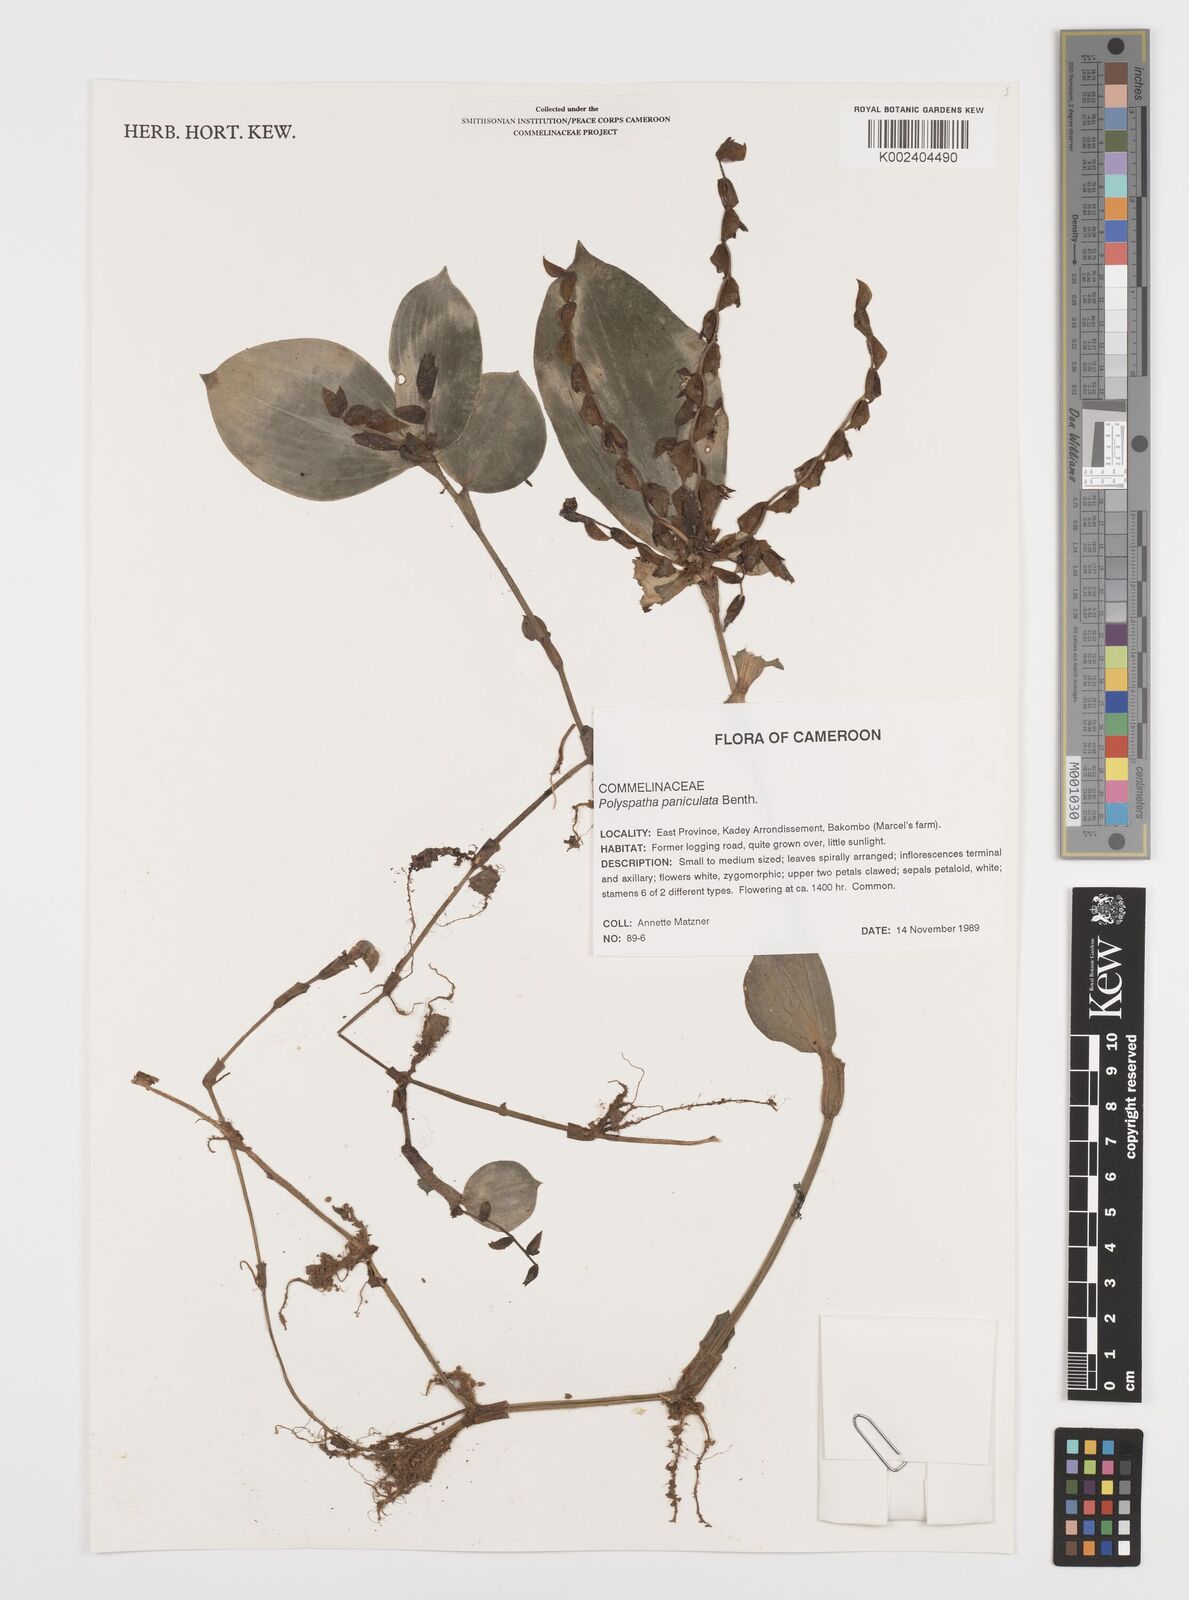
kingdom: Plantae
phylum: Tracheophyta
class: Liliopsida
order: Commelinales
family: Commelinaceae
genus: Polyspatha
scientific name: Polyspatha paniculata
